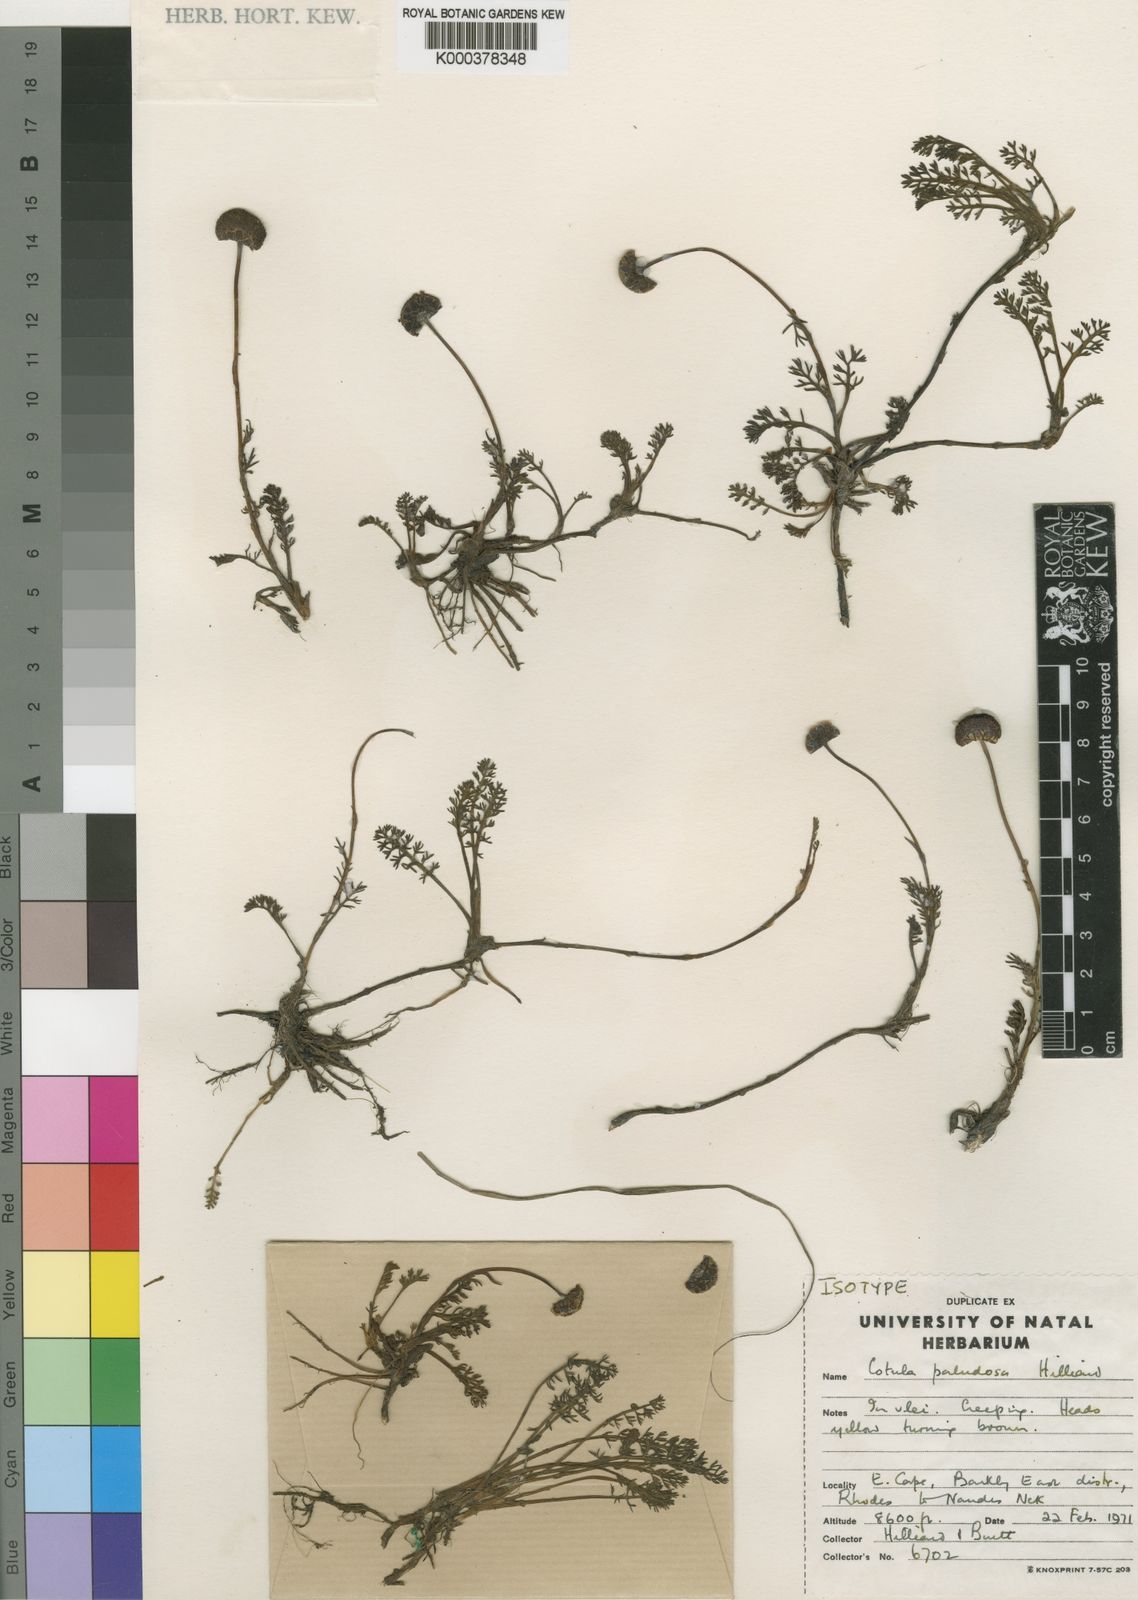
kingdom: Plantae
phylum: Tracheophyta
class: Magnoliopsida
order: Asterales
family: Asteraceae
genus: Cotula
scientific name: Cotula paludosa
